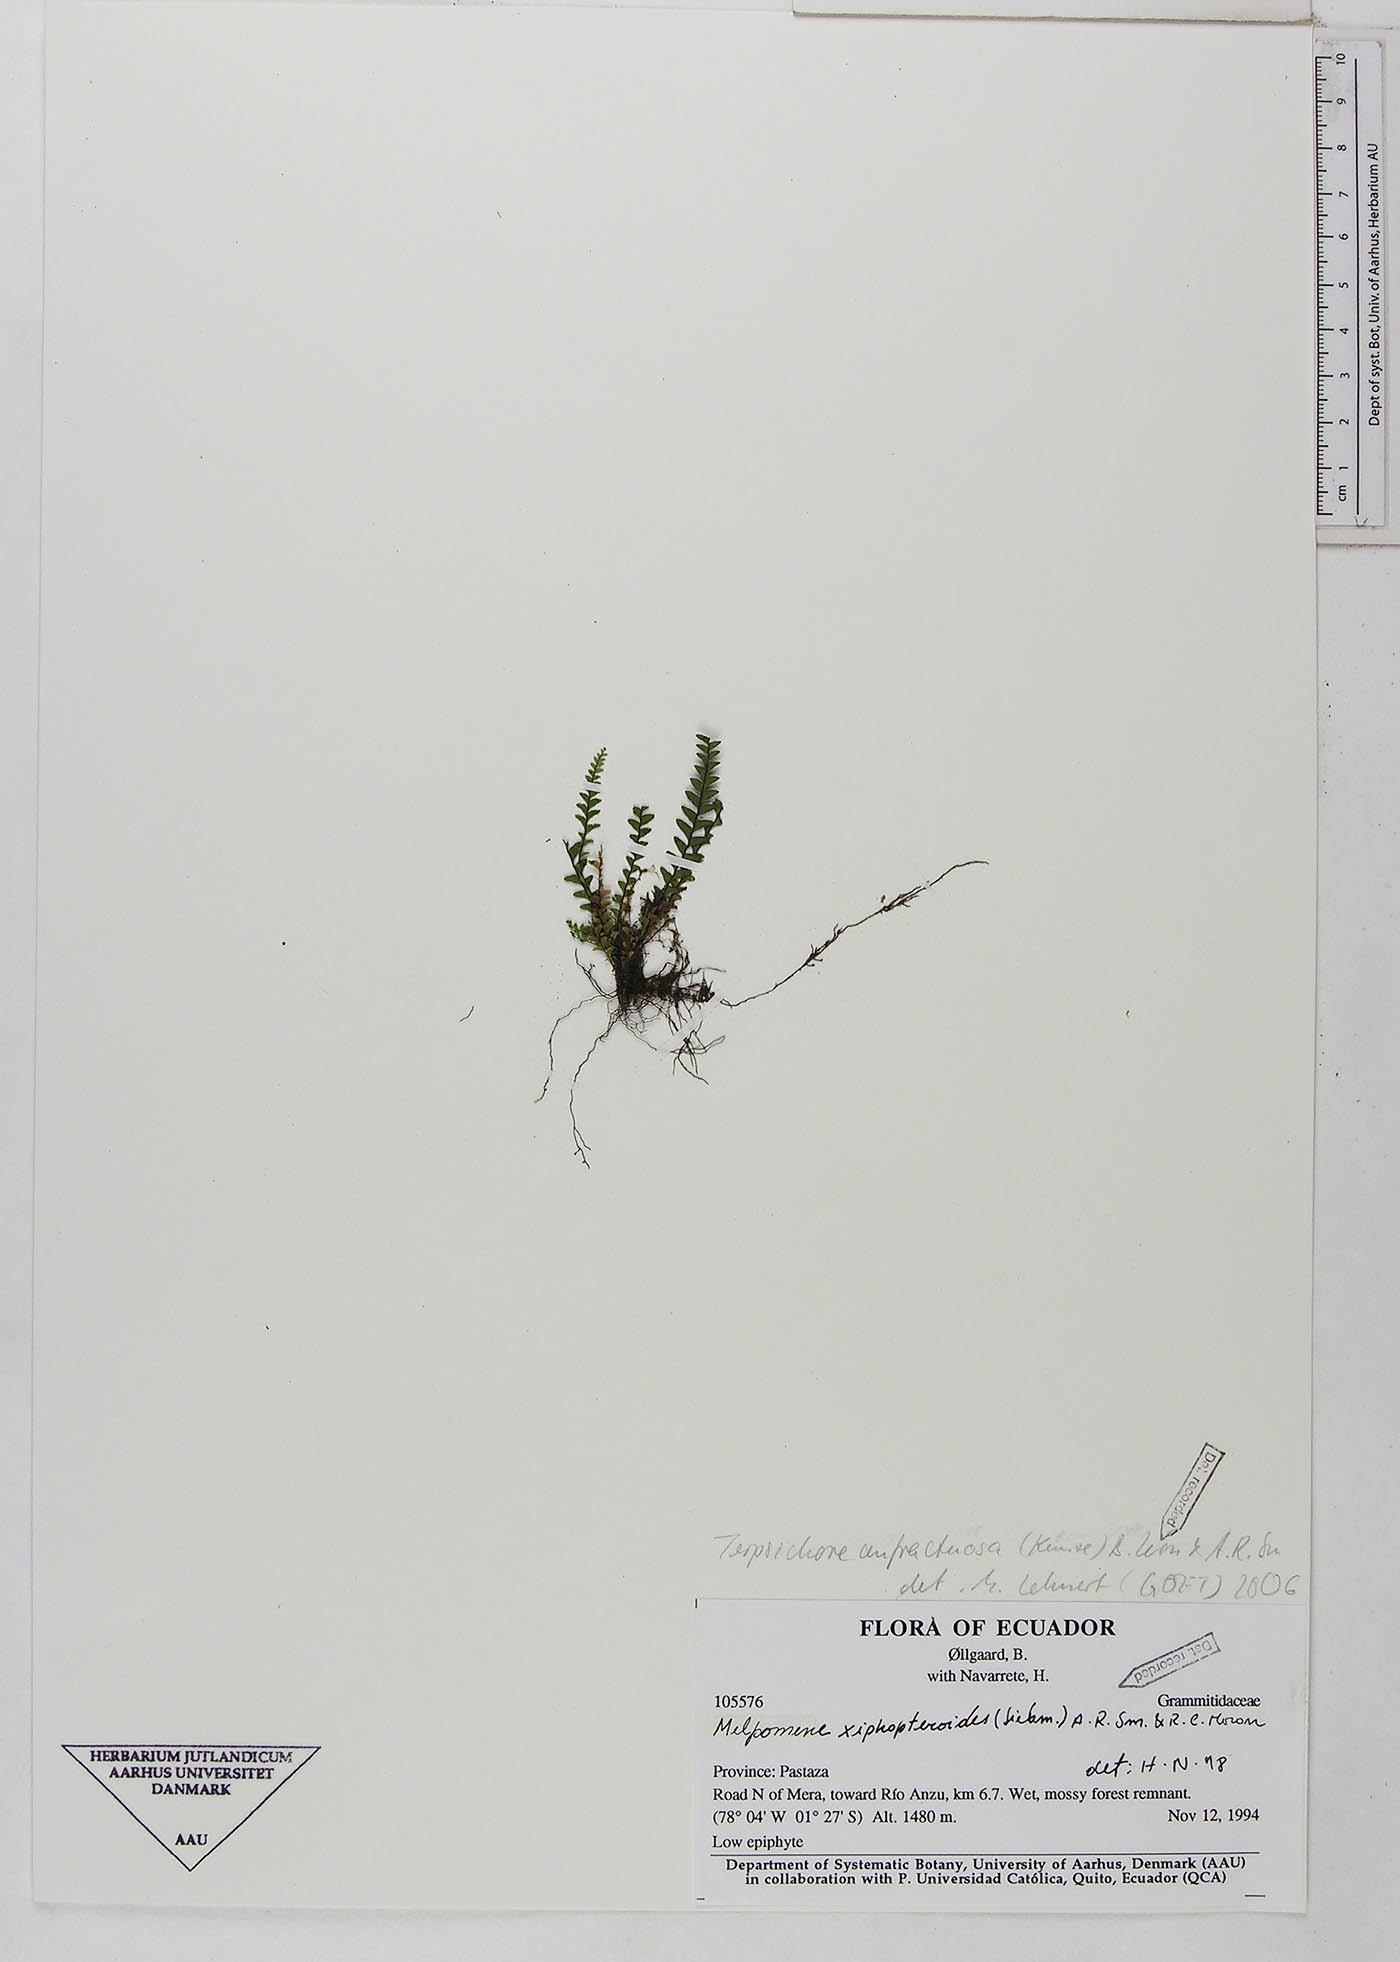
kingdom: Plantae
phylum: Tracheophyta
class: Polypodiopsida
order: Polypodiales
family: Polypodiaceae
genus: Lellingeria
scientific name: Lellingeria
